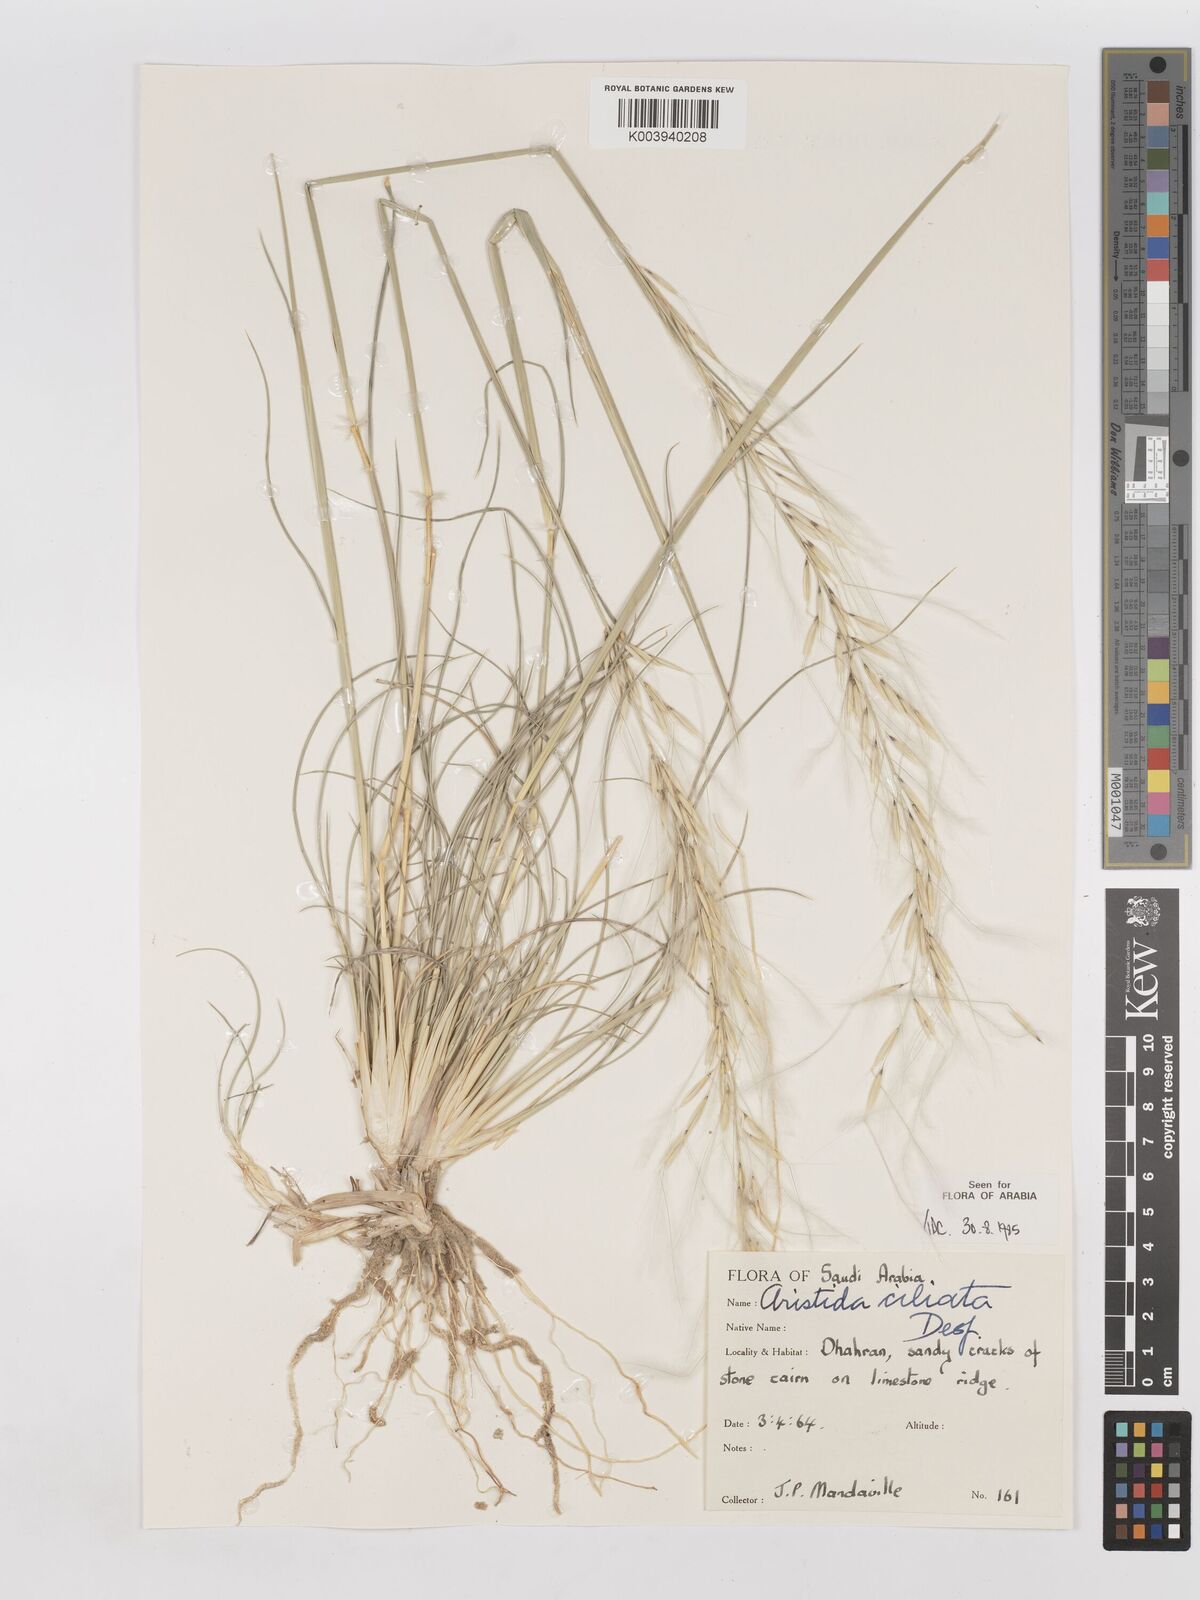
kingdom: Plantae
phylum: Tracheophyta
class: Liliopsida
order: Poales
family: Poaceae
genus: Stipagrostis
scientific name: Stipagrostis ciliata
